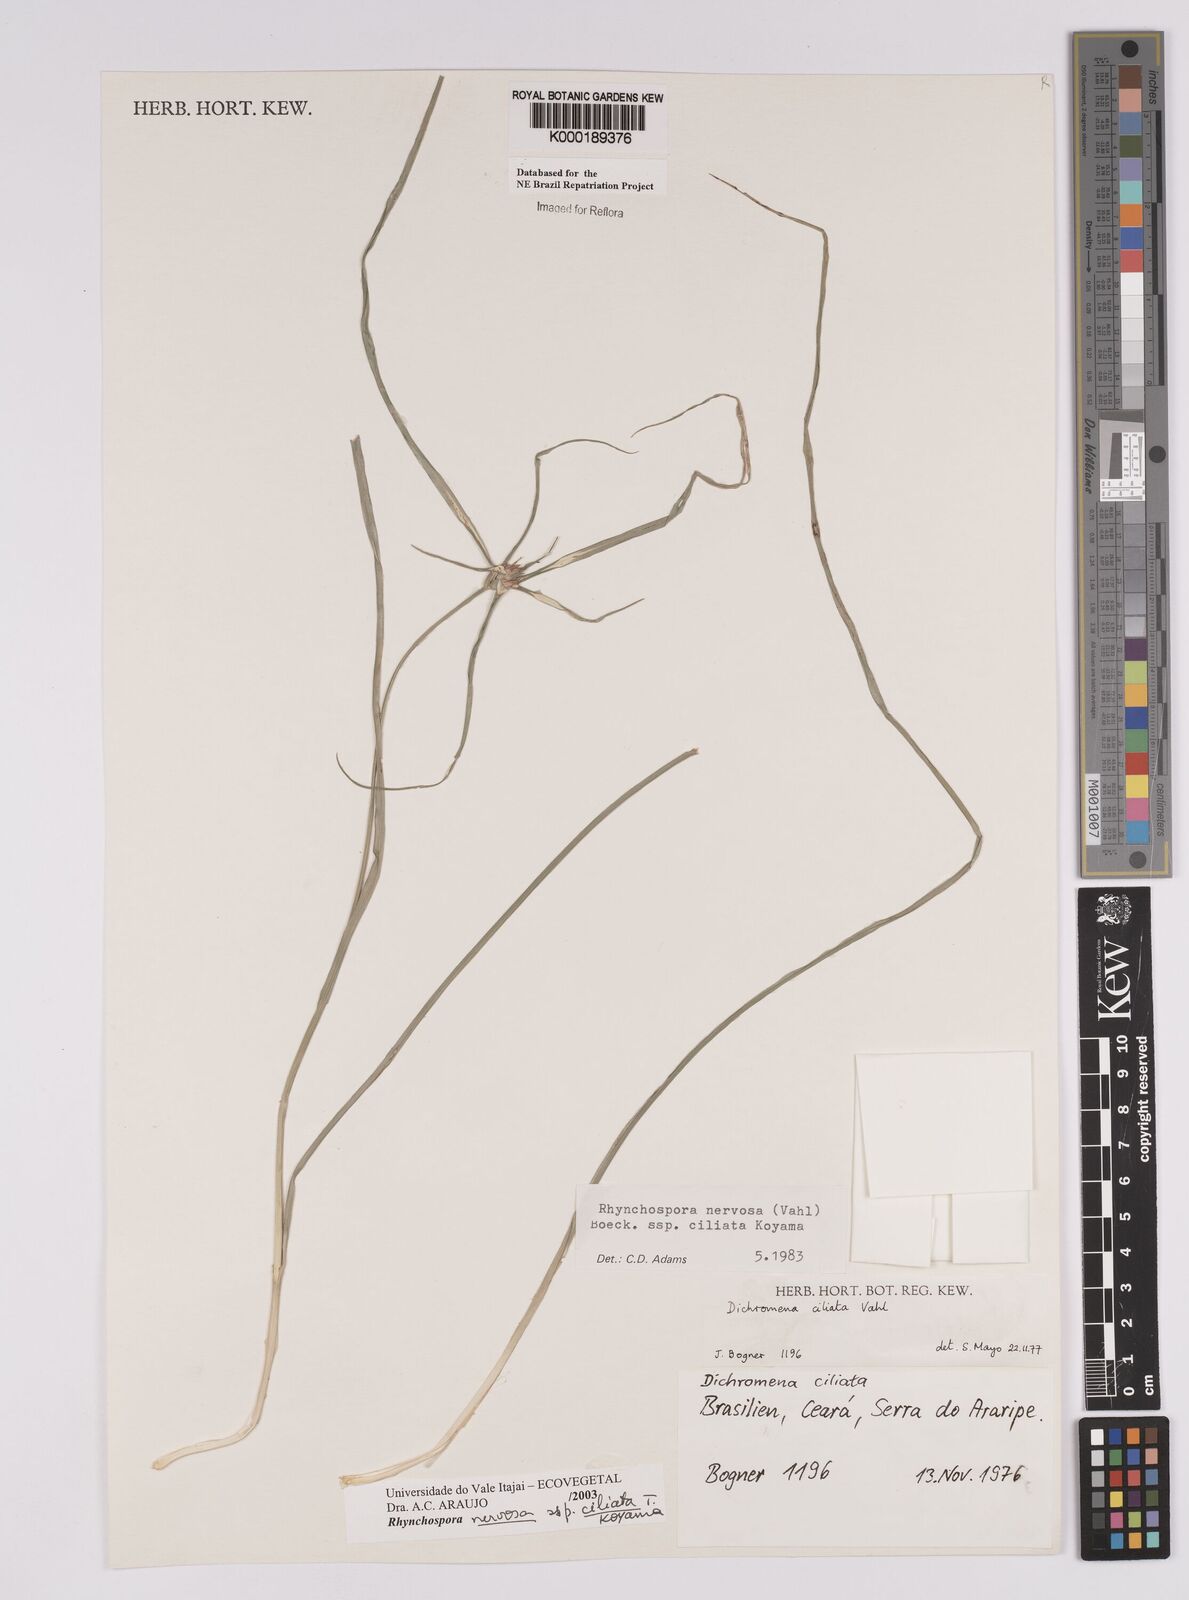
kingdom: Plantae
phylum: Tracheophyta
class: Liliopsida
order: Poales
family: Cyperaceae
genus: Rhynchospora
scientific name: Rhynchospora pura
